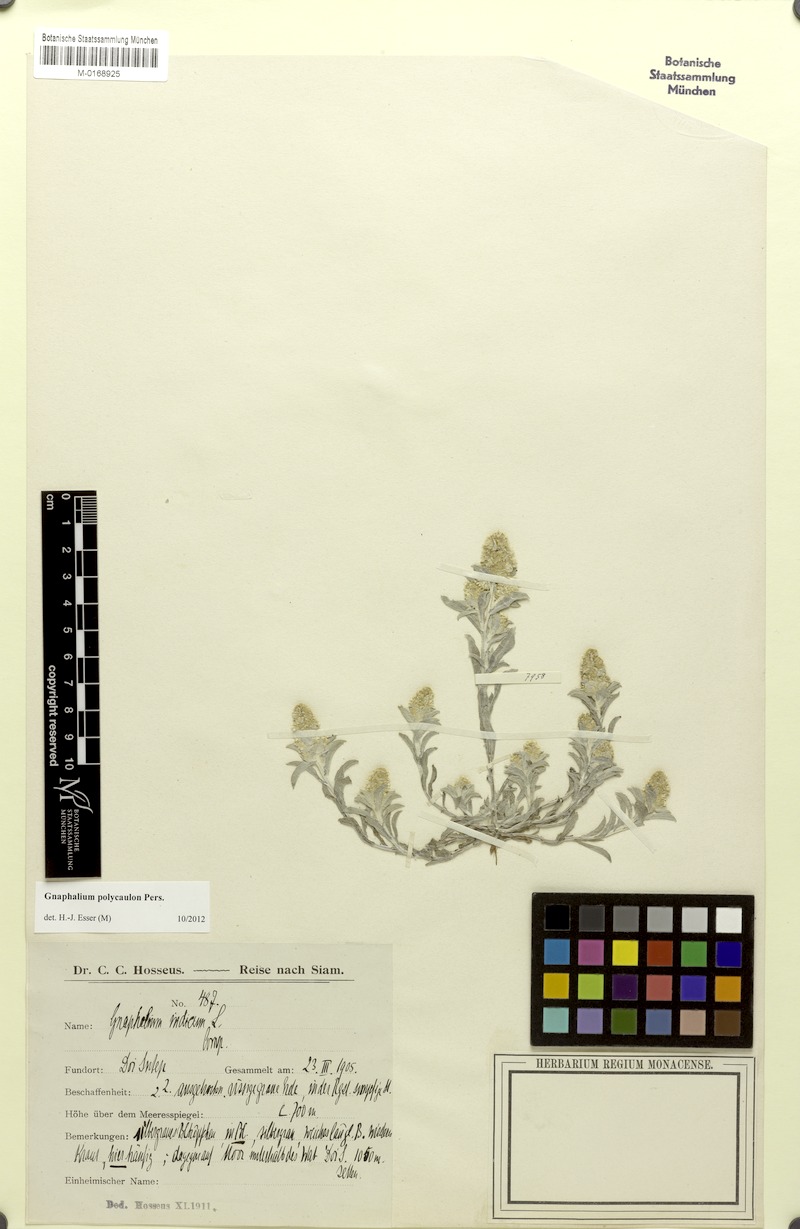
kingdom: Plantae
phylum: Tracheophyta
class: Magnoliopsida
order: Asterales
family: Asteraceae
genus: Gnaphalium
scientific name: Gnaphalium polycaulon
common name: Western cudweed
